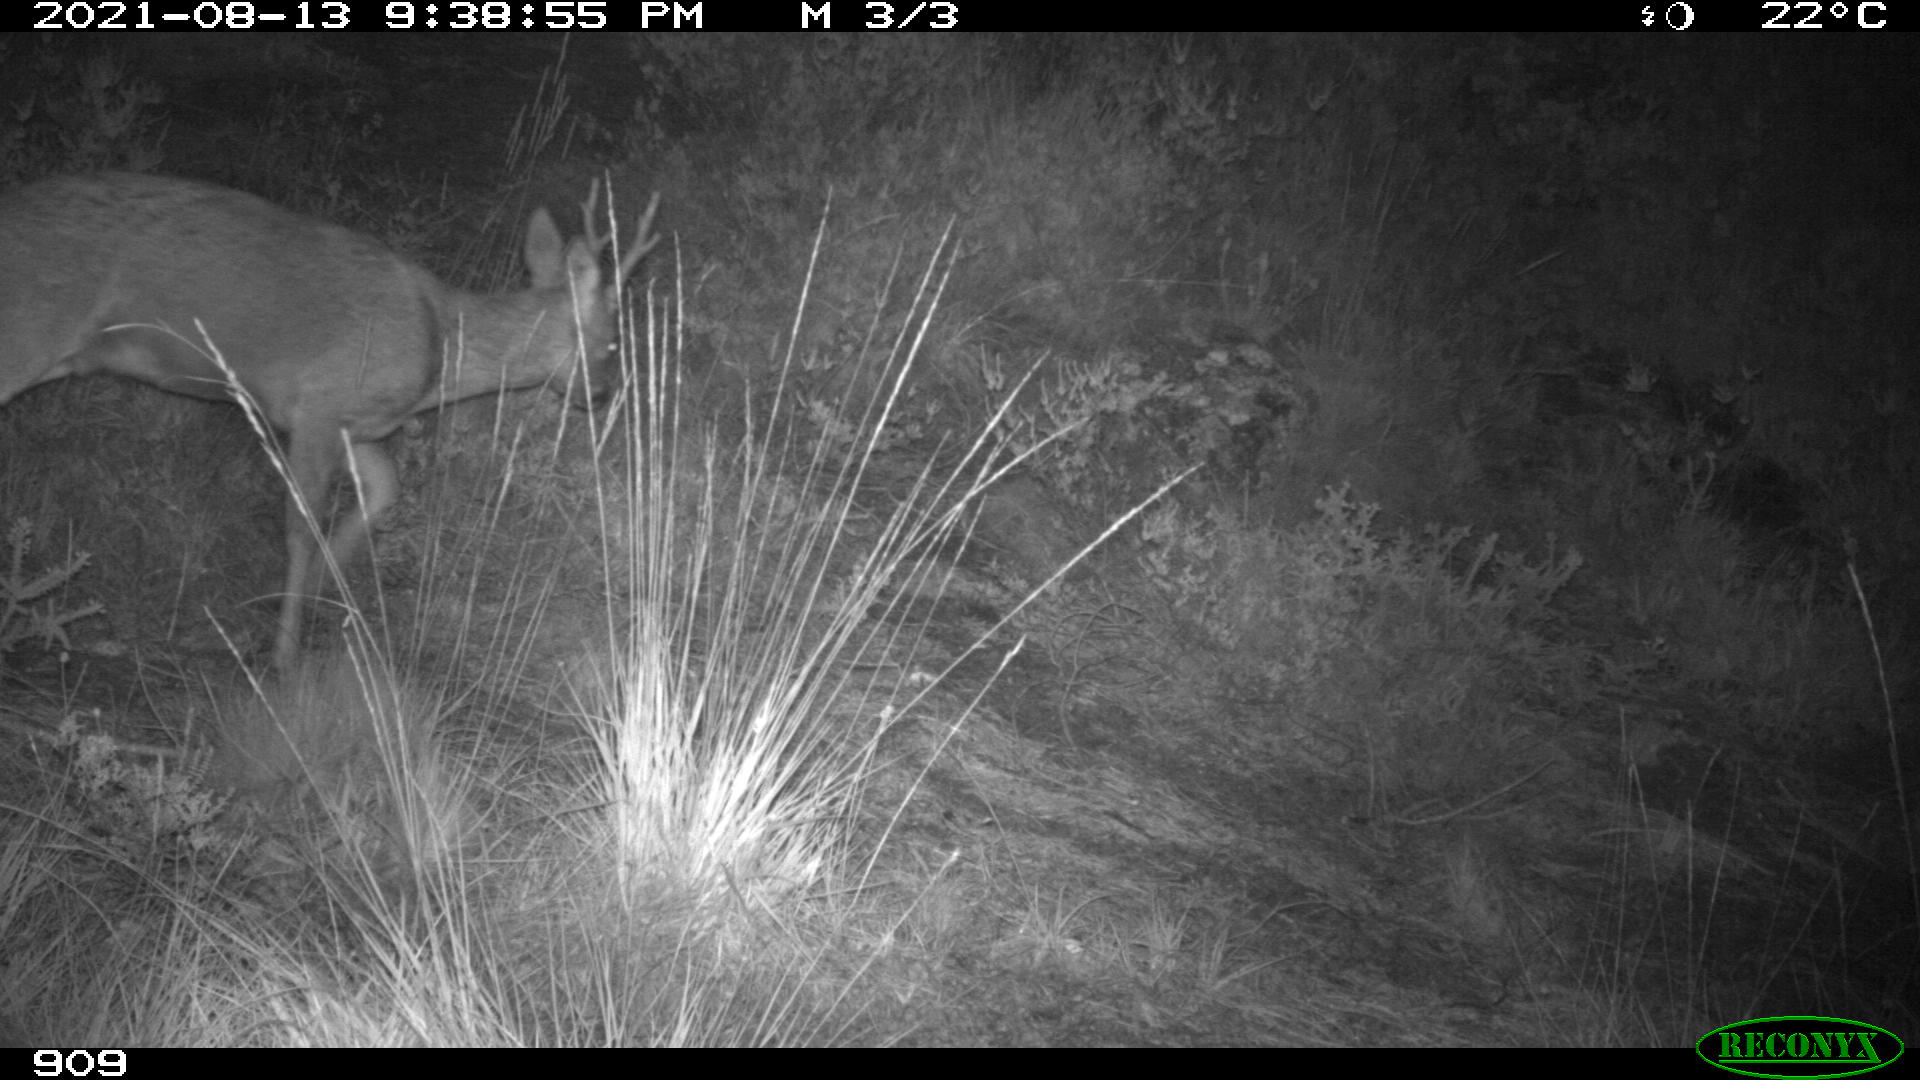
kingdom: Animalia
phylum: Chordata
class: Mammalia
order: Artiodactyla
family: Cervidae
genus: Capreolus
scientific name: Capreolus capreolus
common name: Western roe deer
